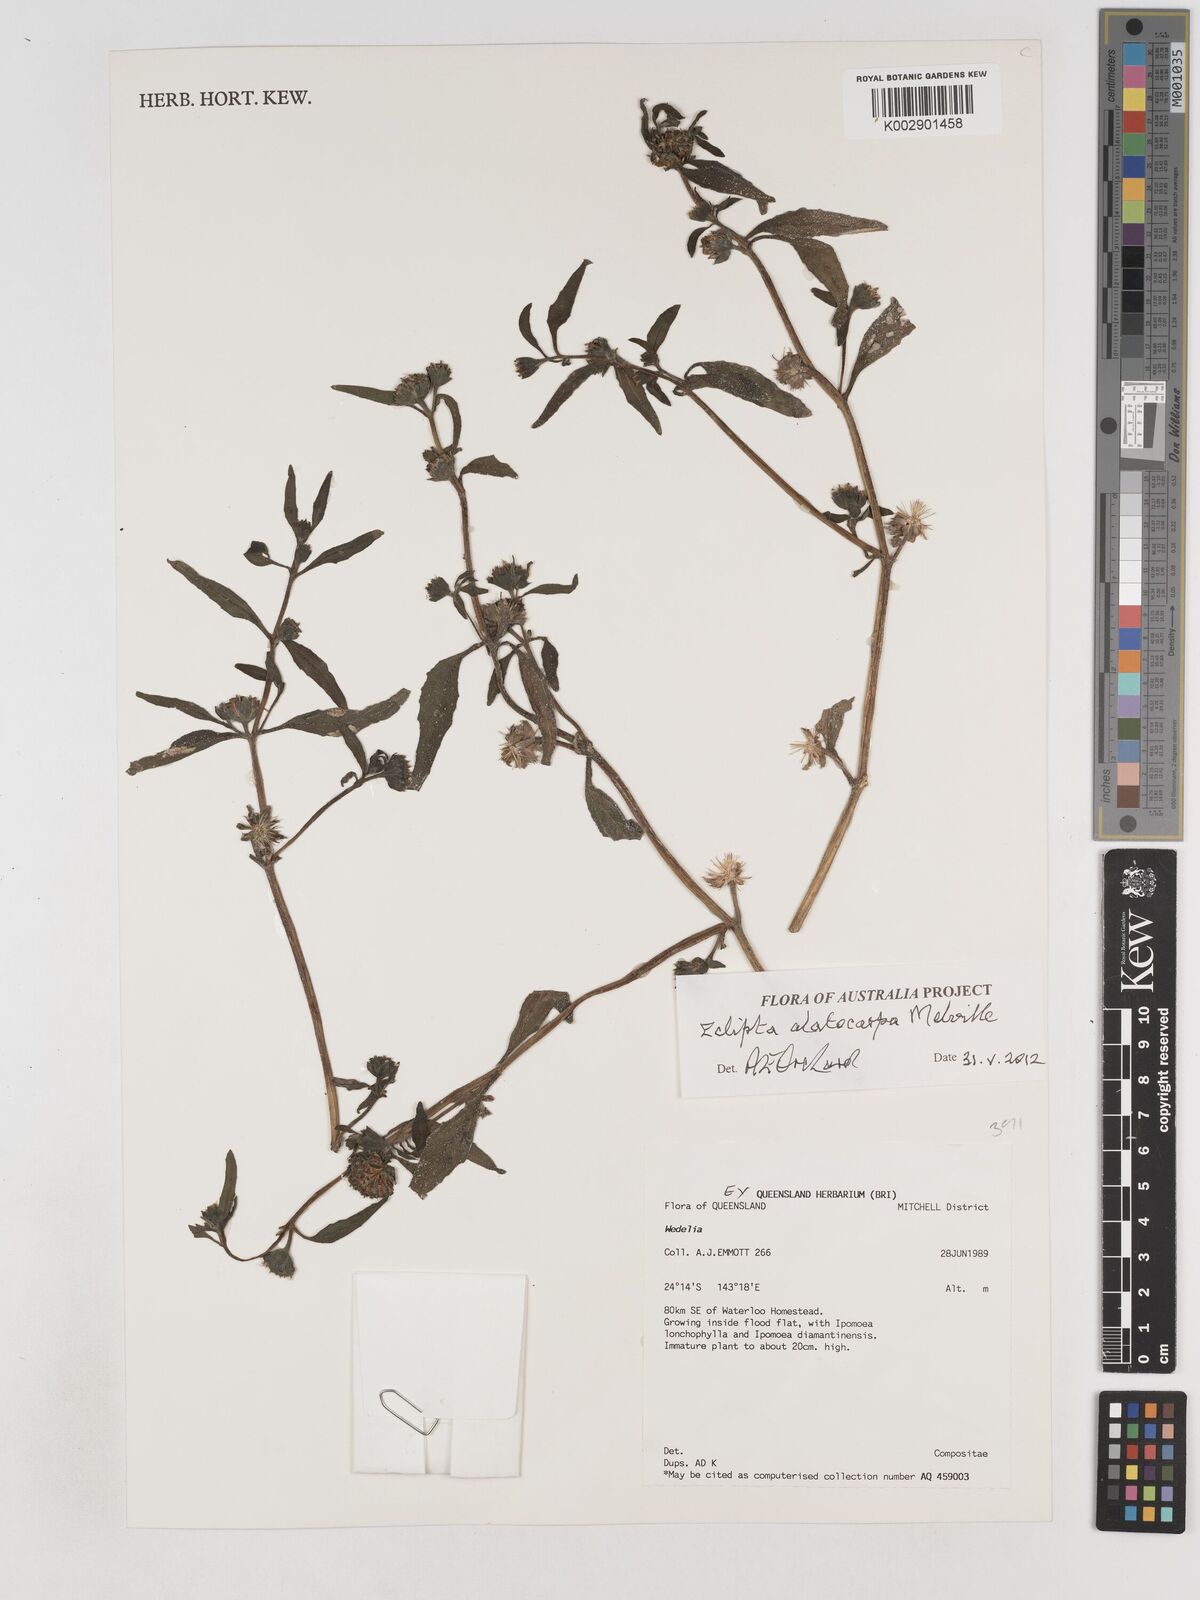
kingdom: Plantae
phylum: Tracheophyta
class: Magnoliopsida
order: Asterales
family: Asteraceae
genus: Eclipta
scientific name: Eclipta alatocarpa
